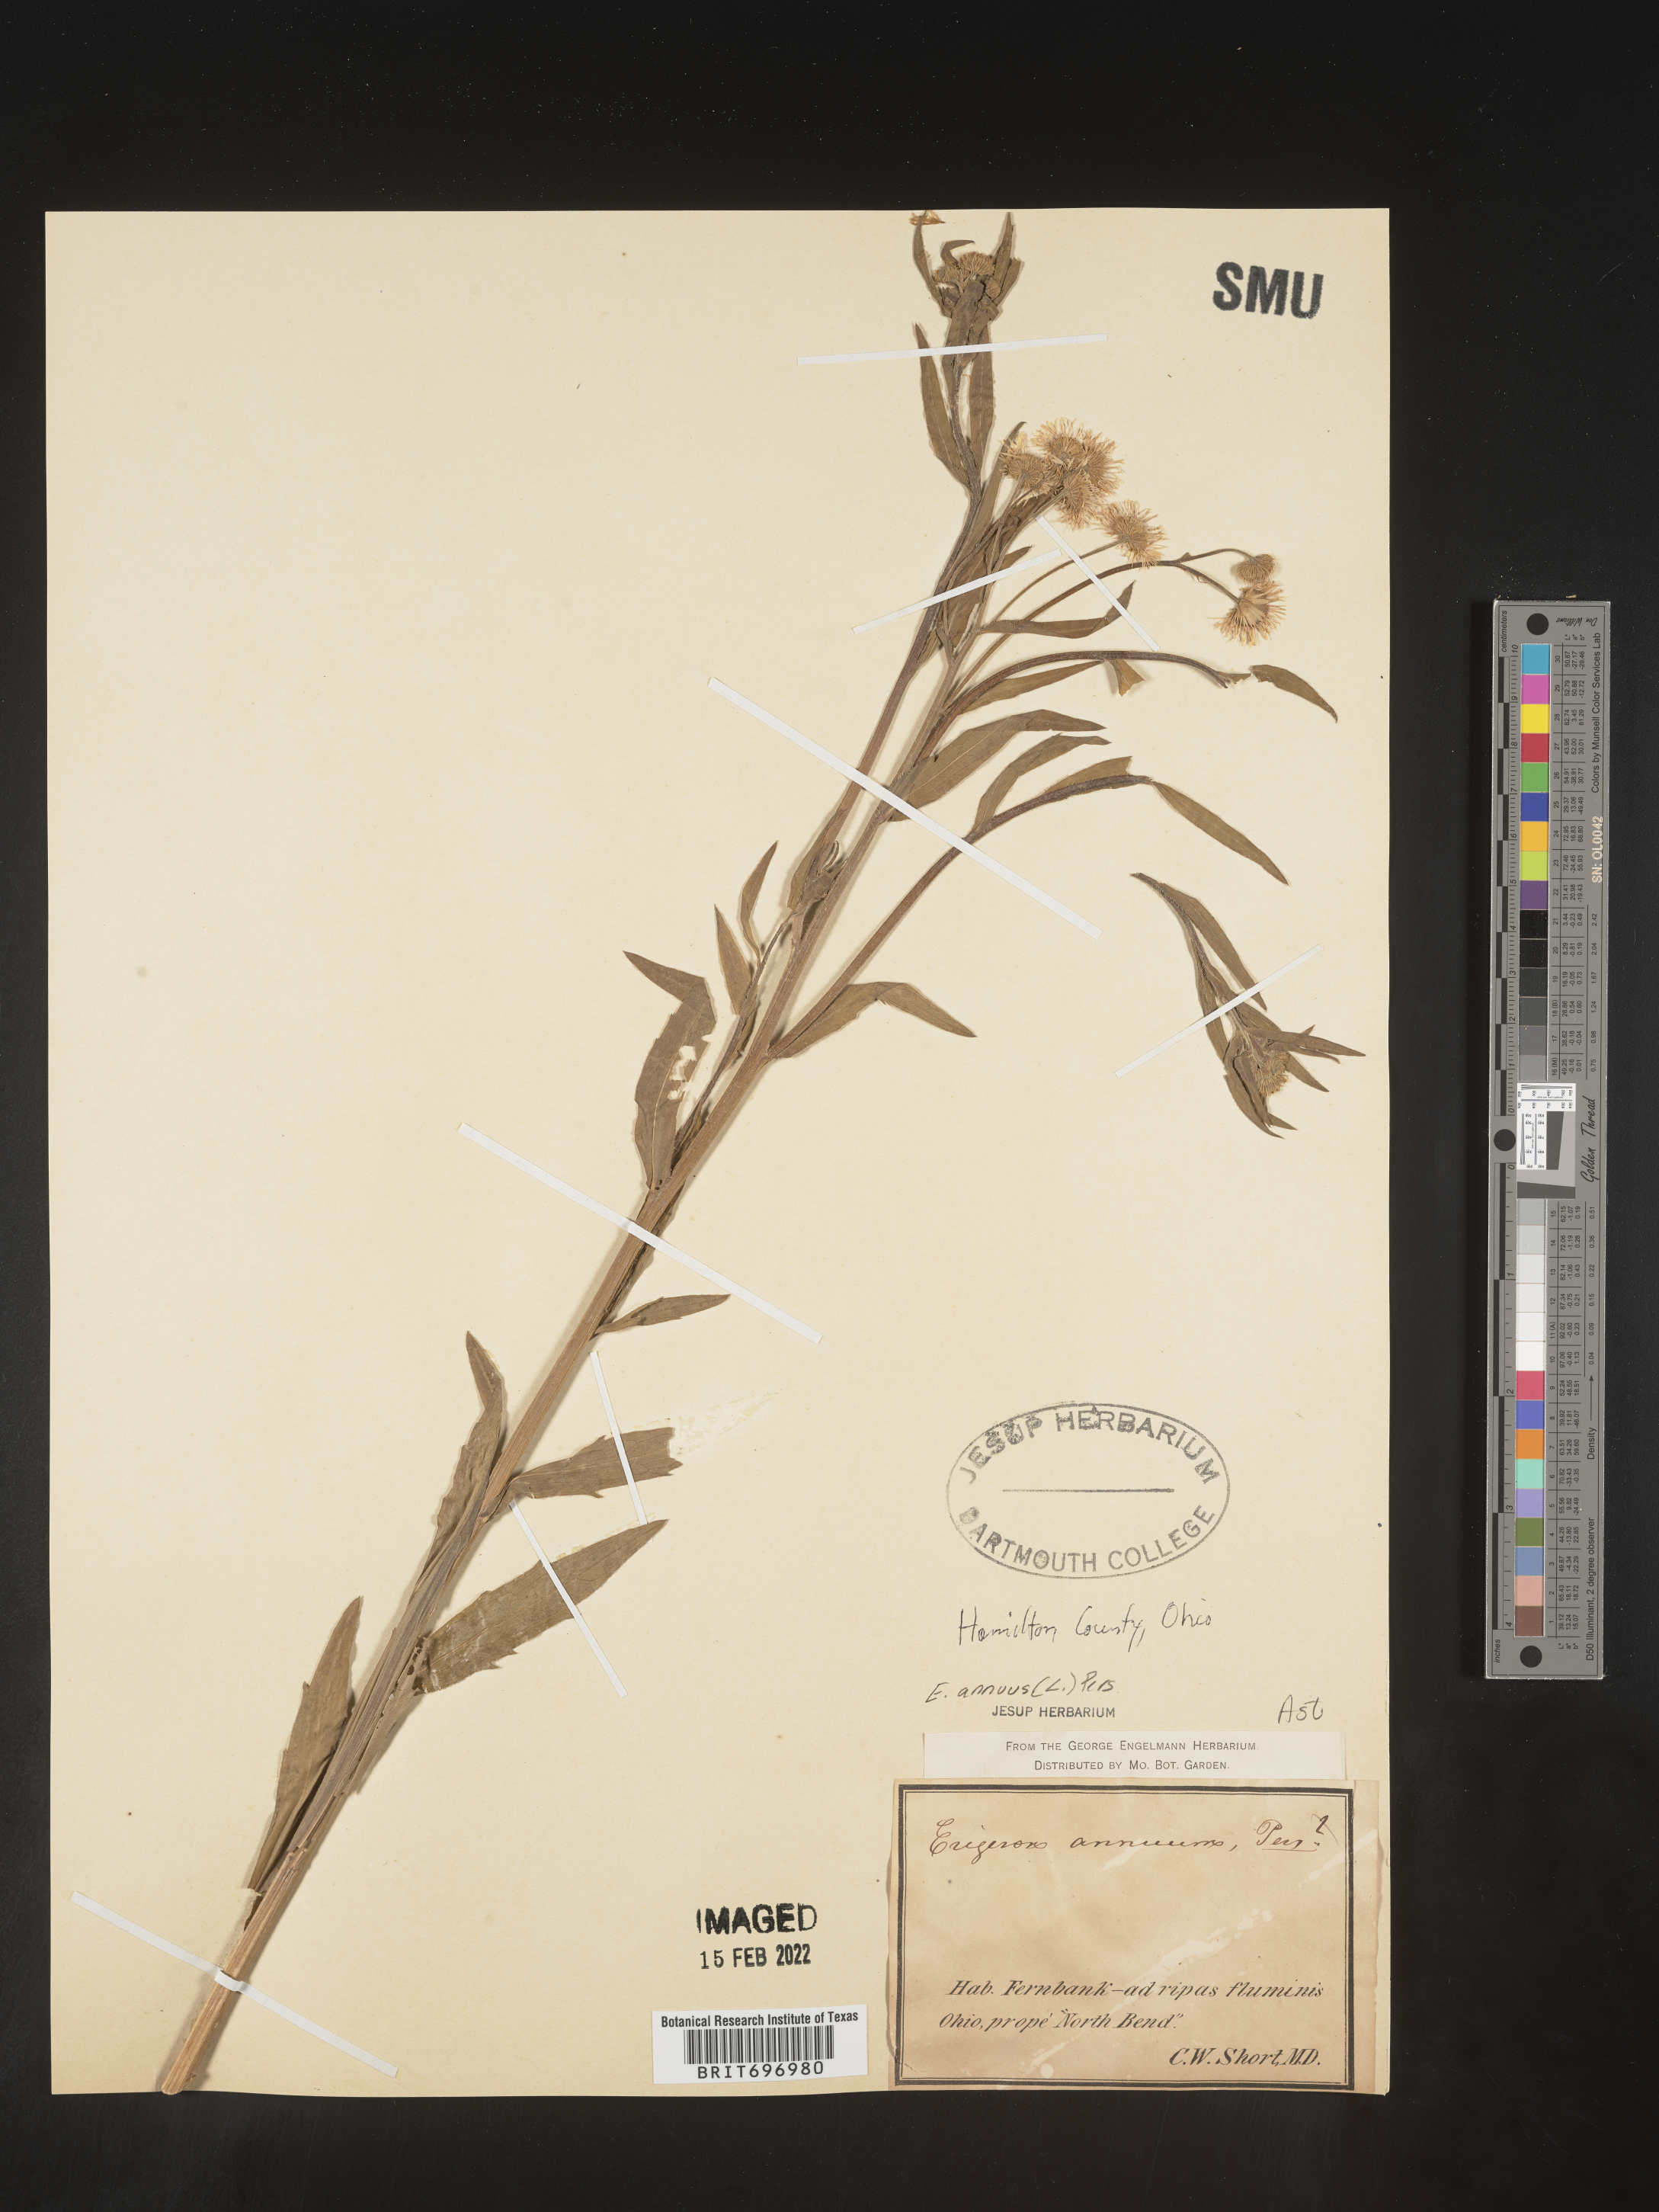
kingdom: Plantae
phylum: Tracheophyta
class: Magnoliopsida
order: Asterales
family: Asteraceae
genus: Erigeron
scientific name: Erigeron annuus
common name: Tall fleabane
